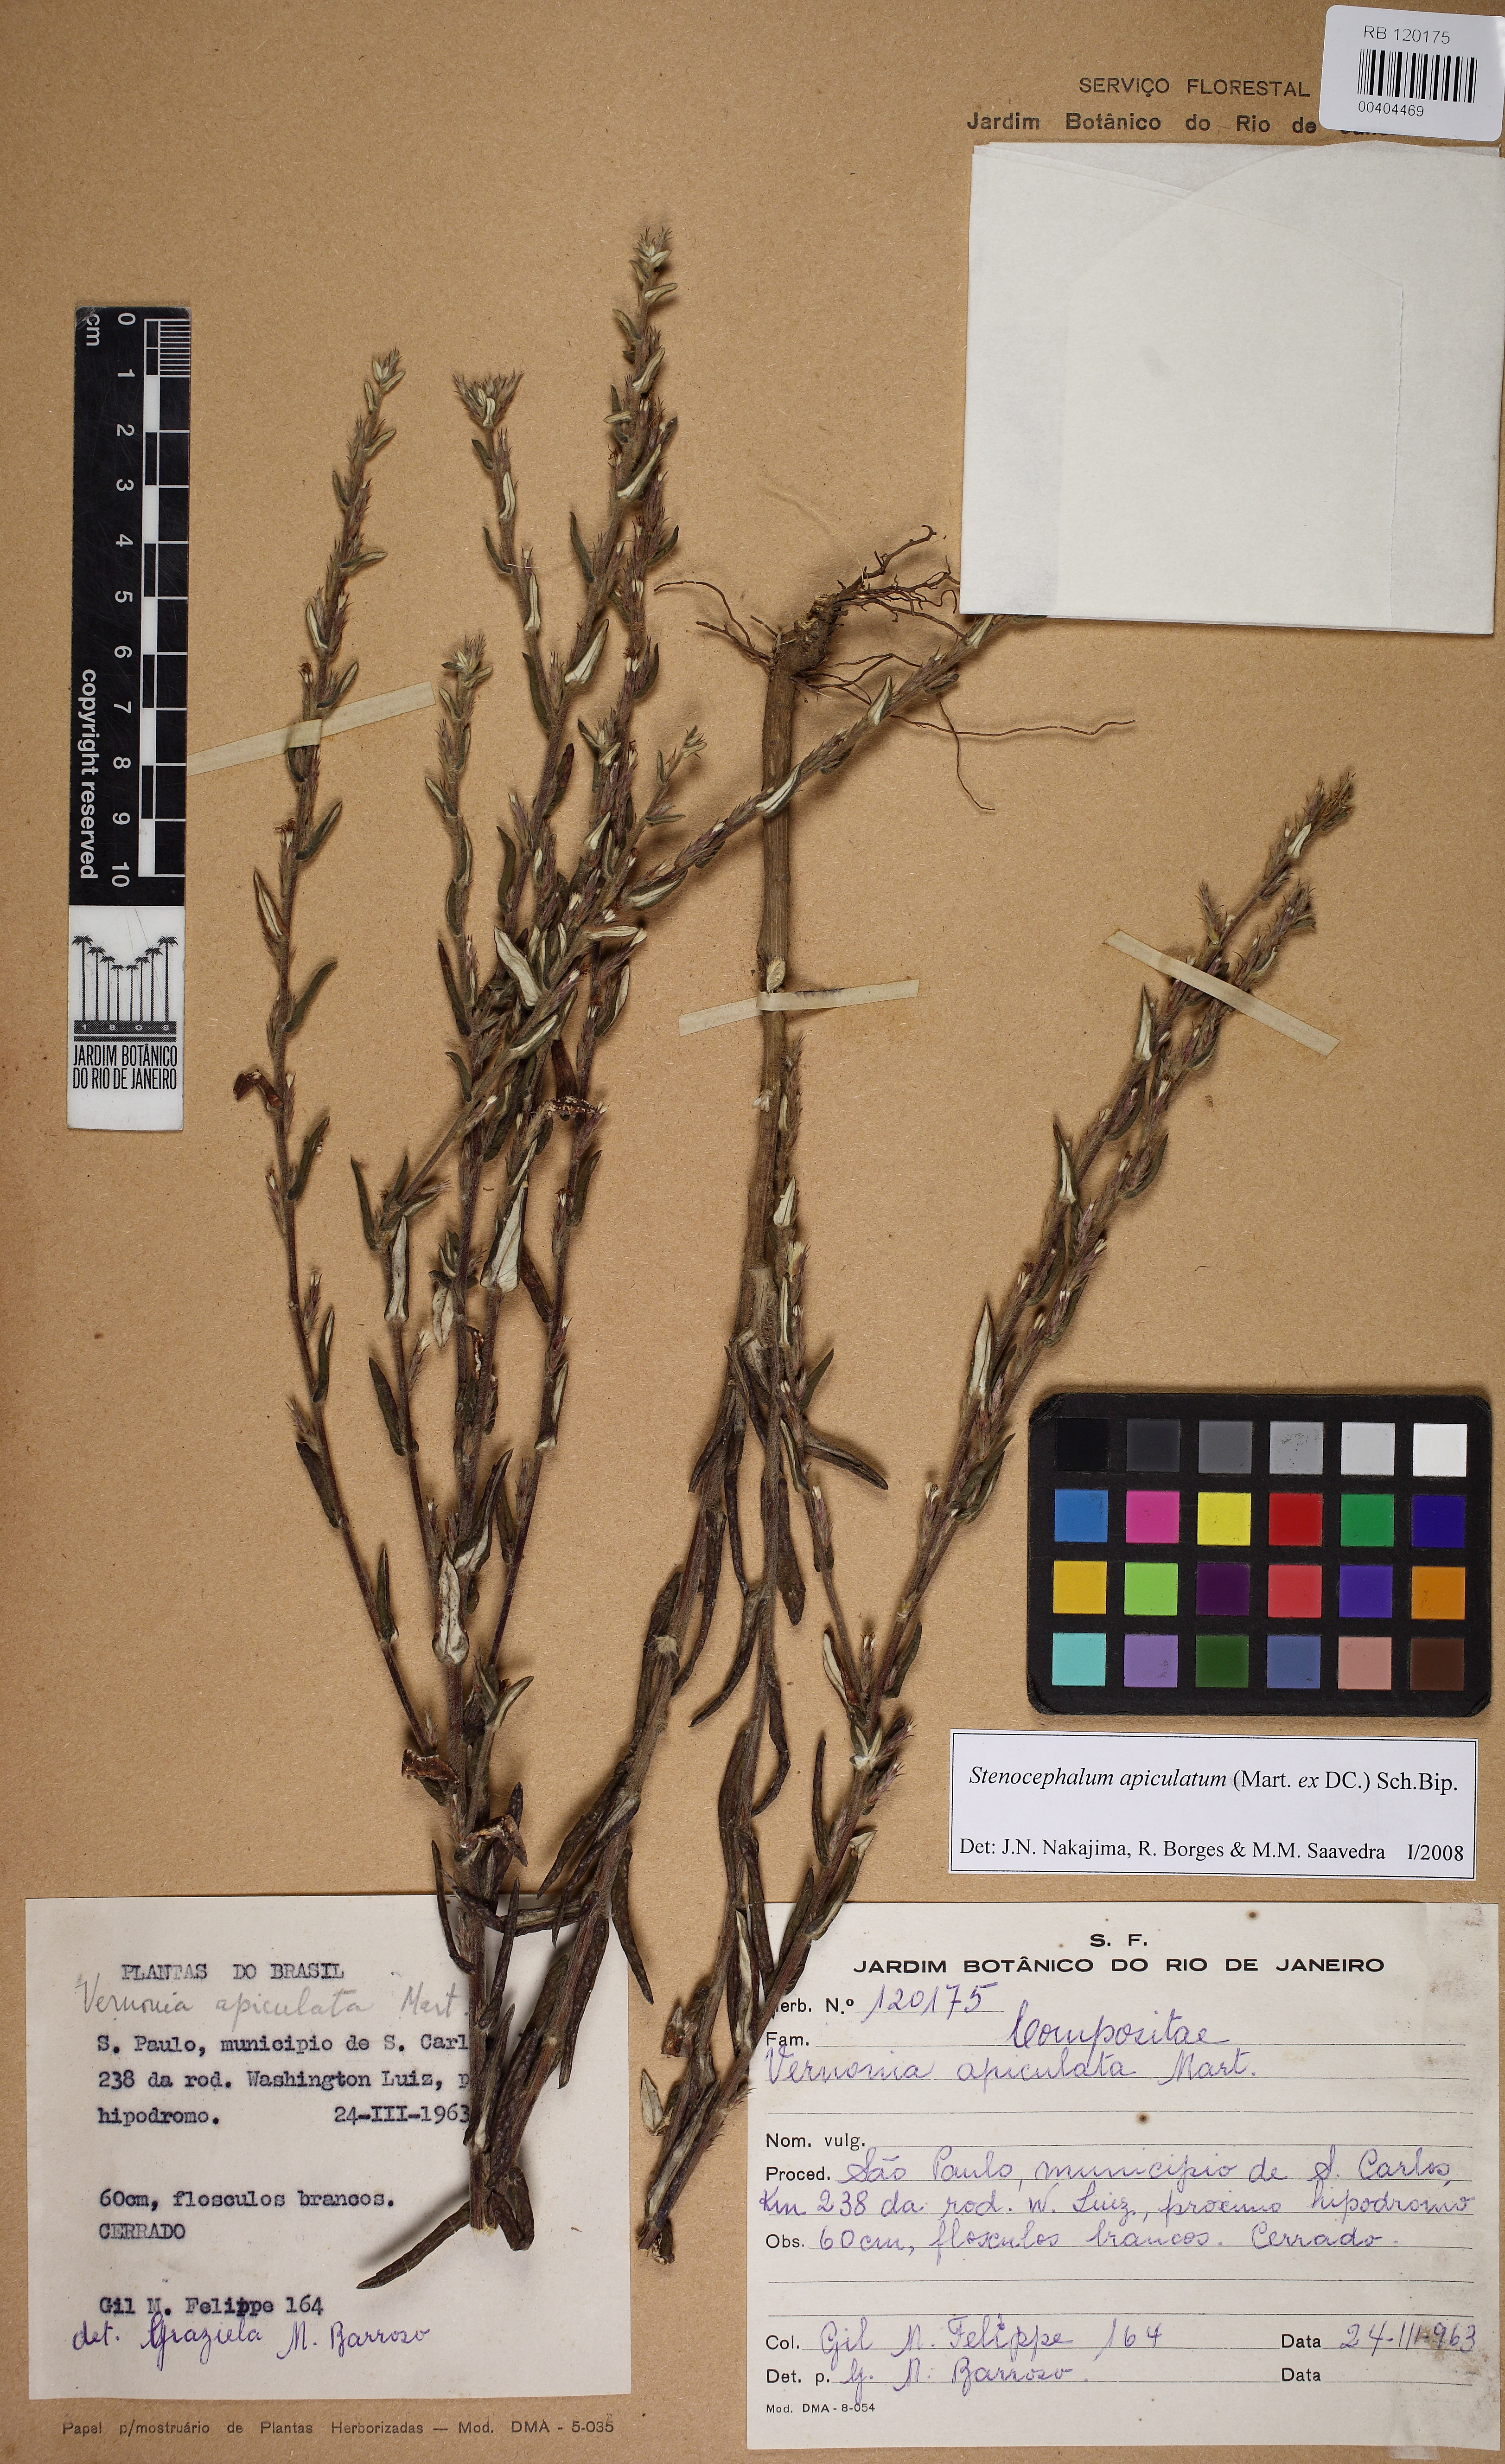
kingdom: Plantae
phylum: Tracheophyta
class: Magnoliopsida
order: Asterales
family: Asteraceae
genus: Stenocephalum
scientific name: Stenocephalum apiculatum
